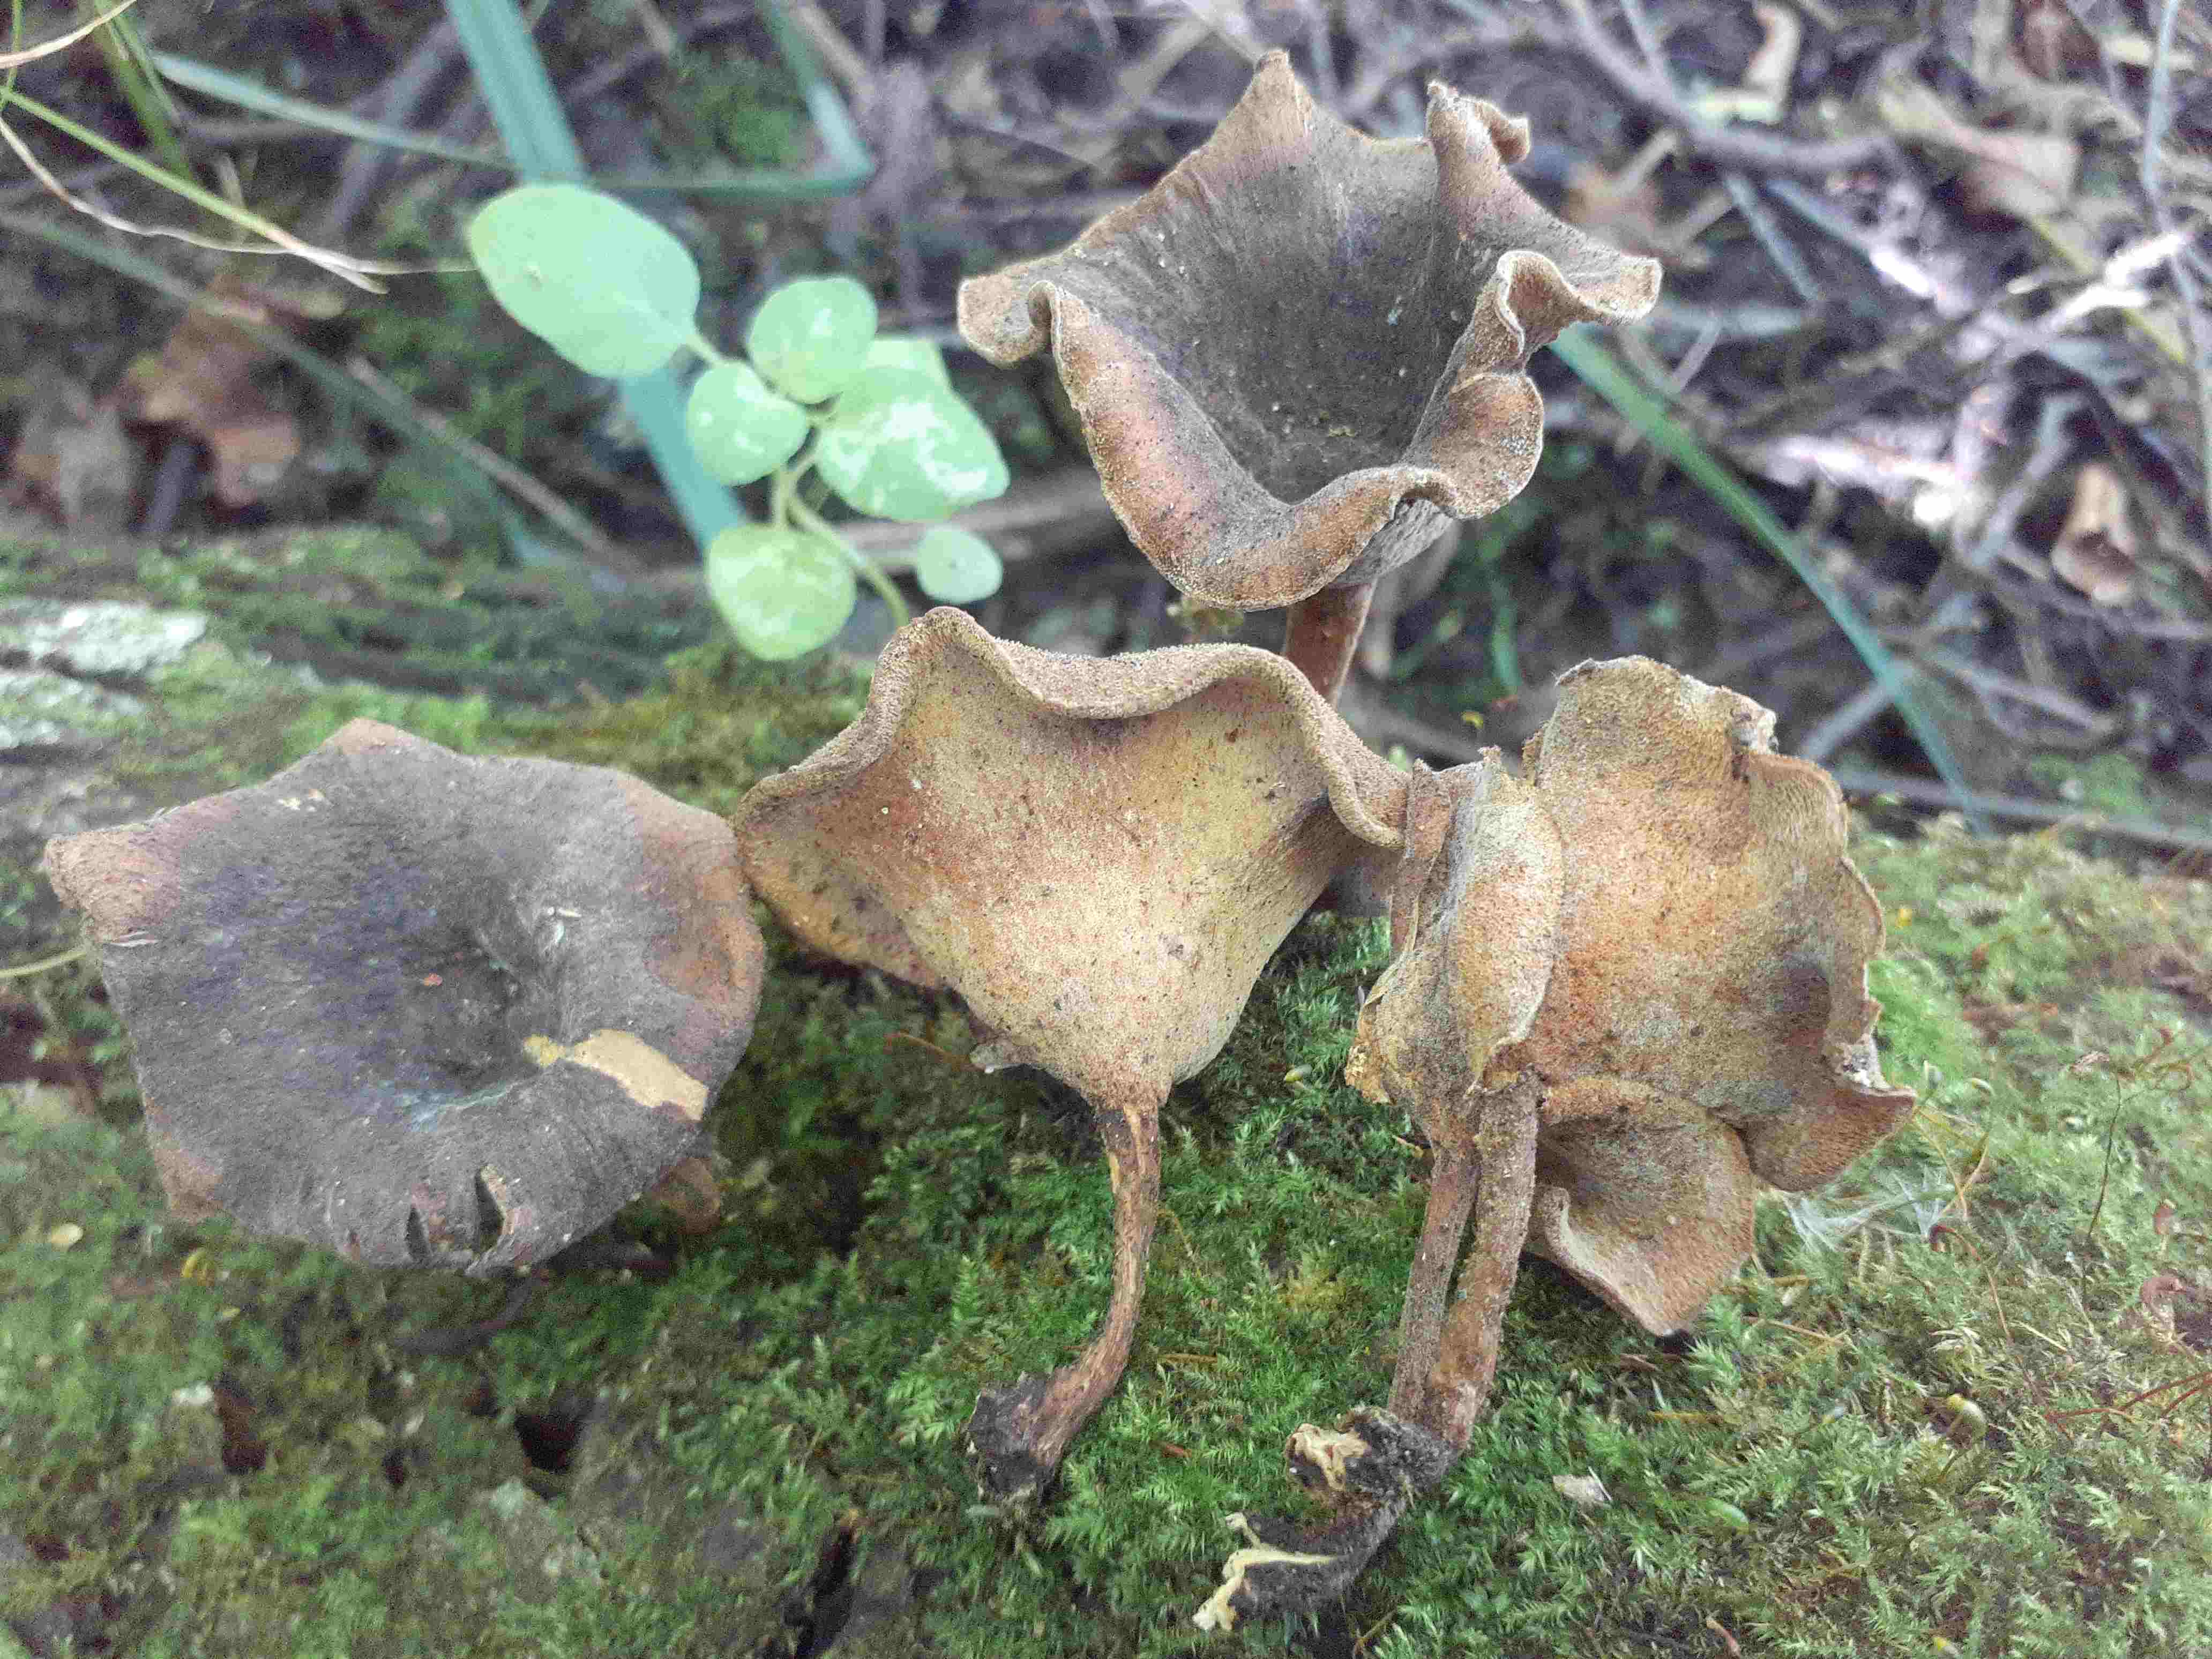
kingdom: Fungi
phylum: Basidiomycota
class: Agaricomycetes
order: Polyporales
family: Polyporaceae
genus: Lentinus
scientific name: Lentinus substrictus
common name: forårs-stilkporesvamp
